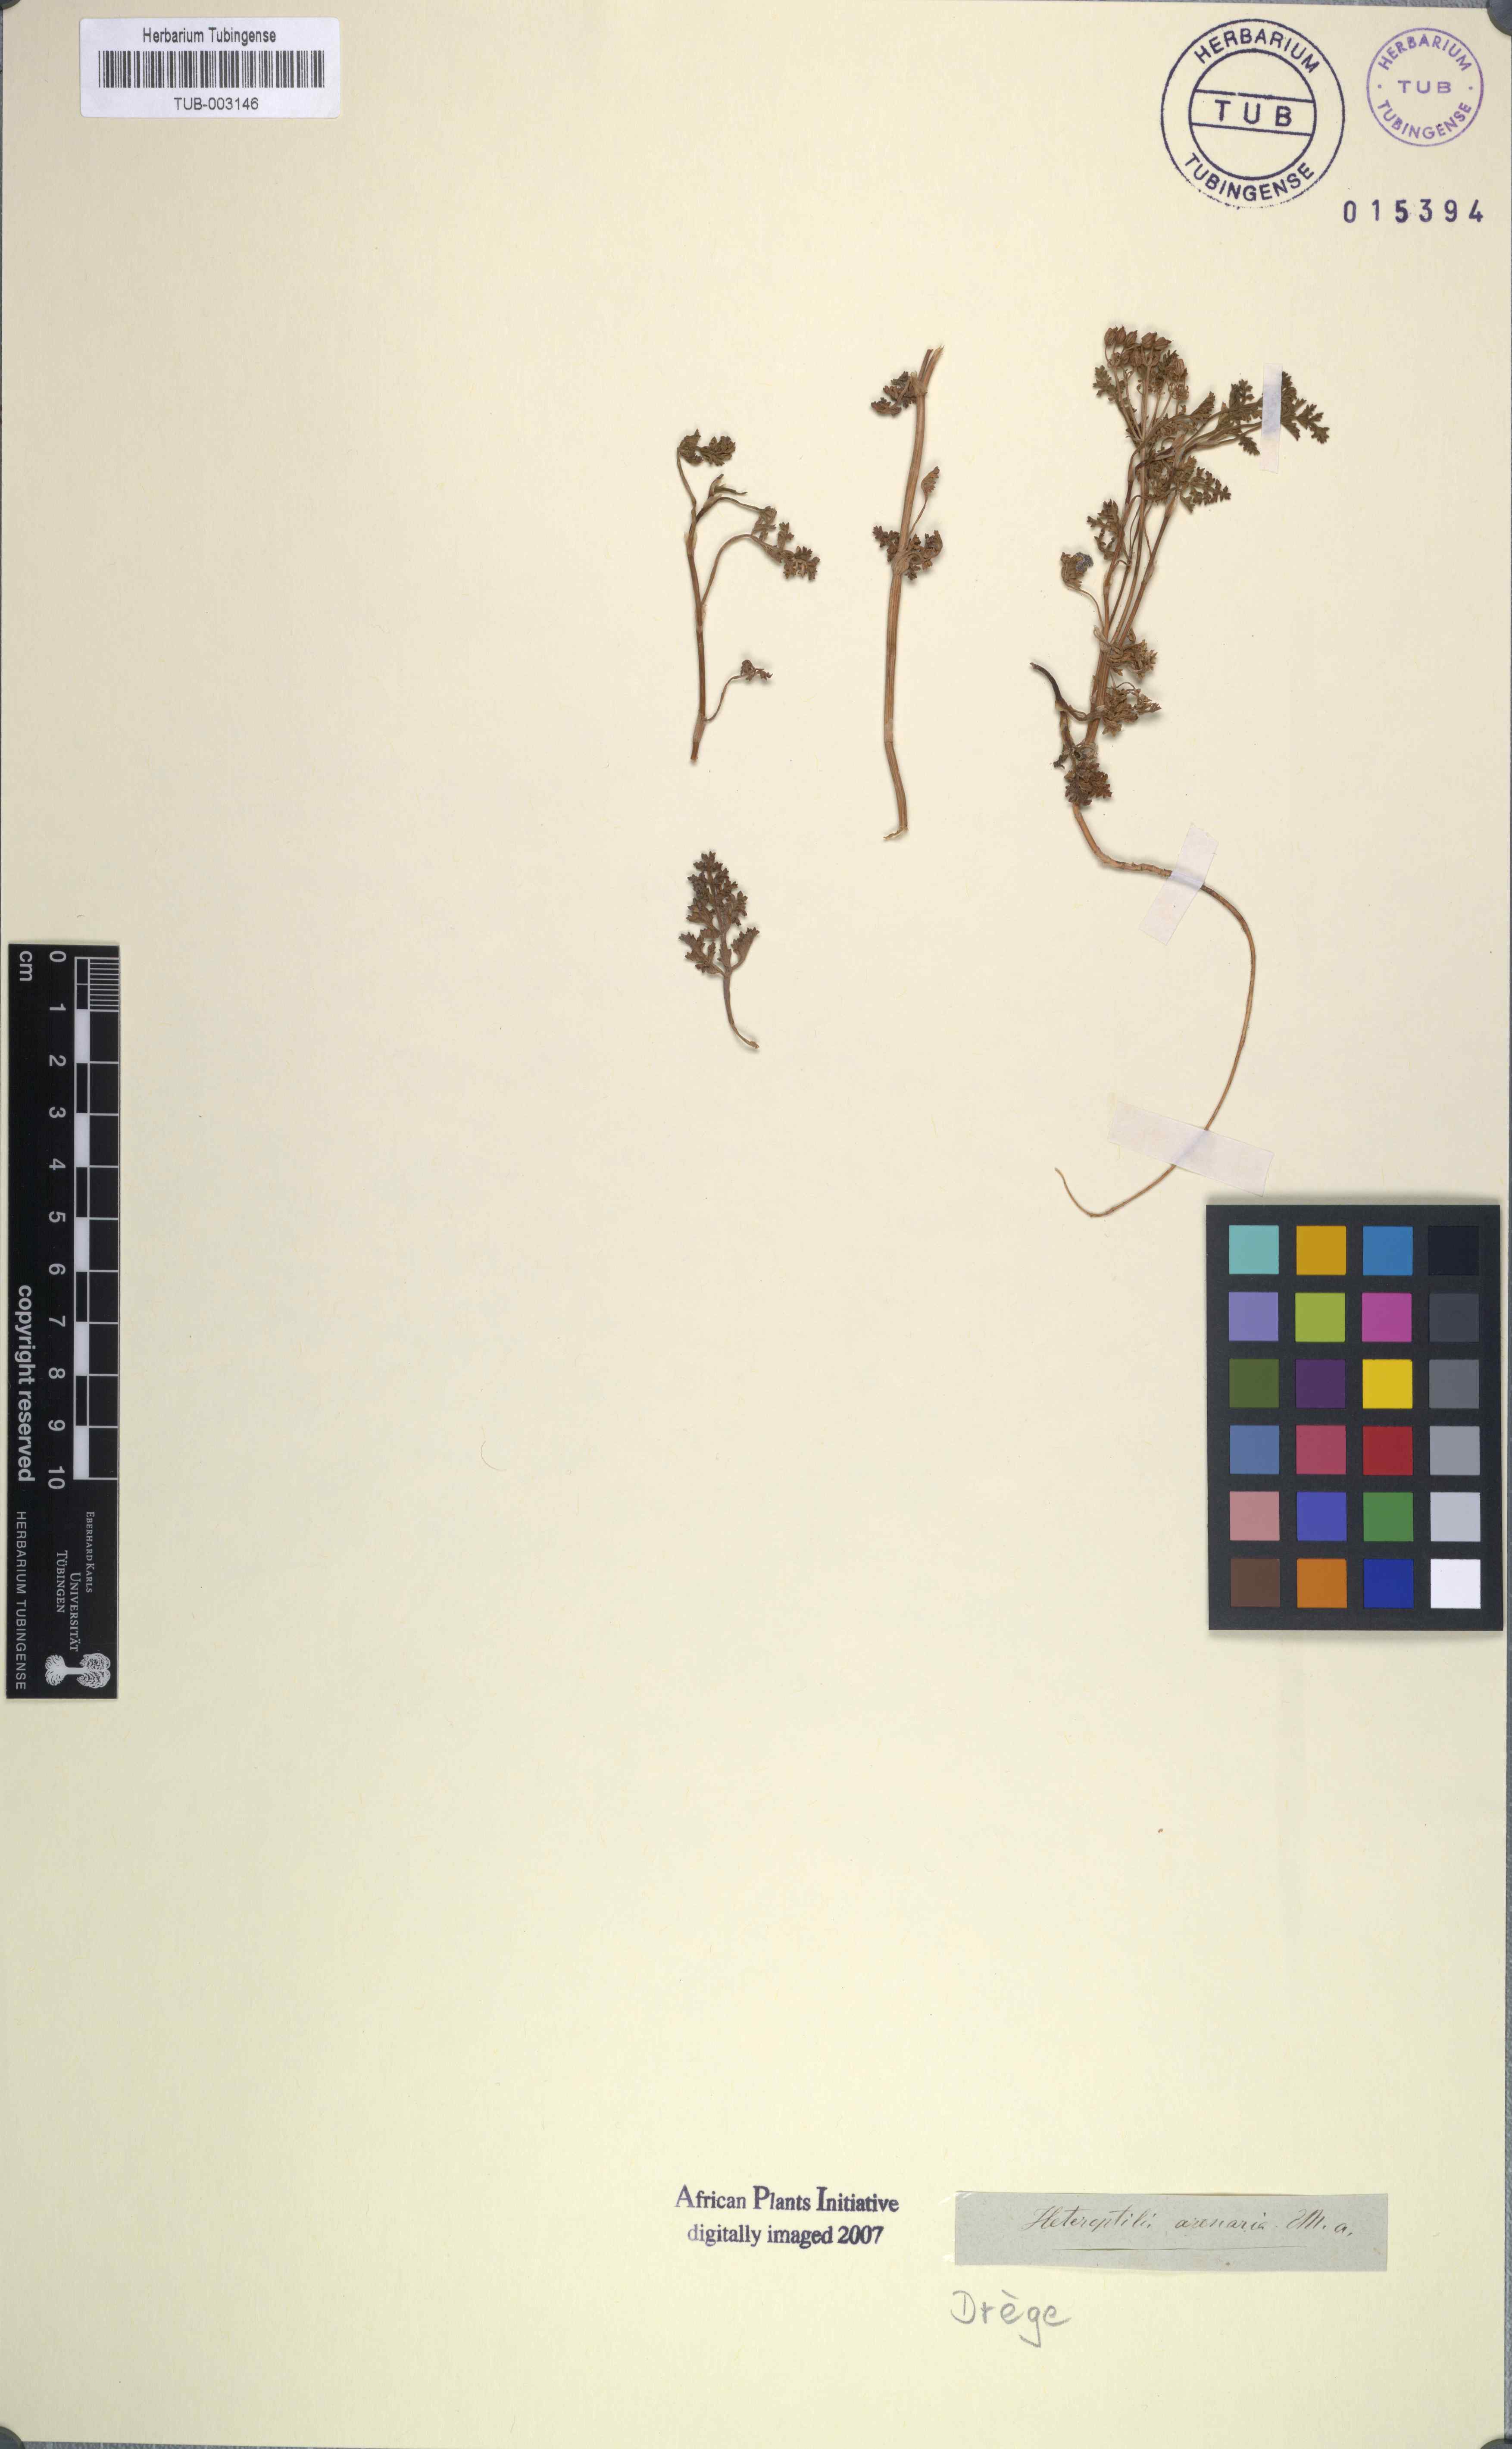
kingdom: Plantae
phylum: Tracheophyta
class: Magnoliopsida
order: Apiales
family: Apiaceae
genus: Dasispermum
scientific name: Dasispermum suffruticosum
